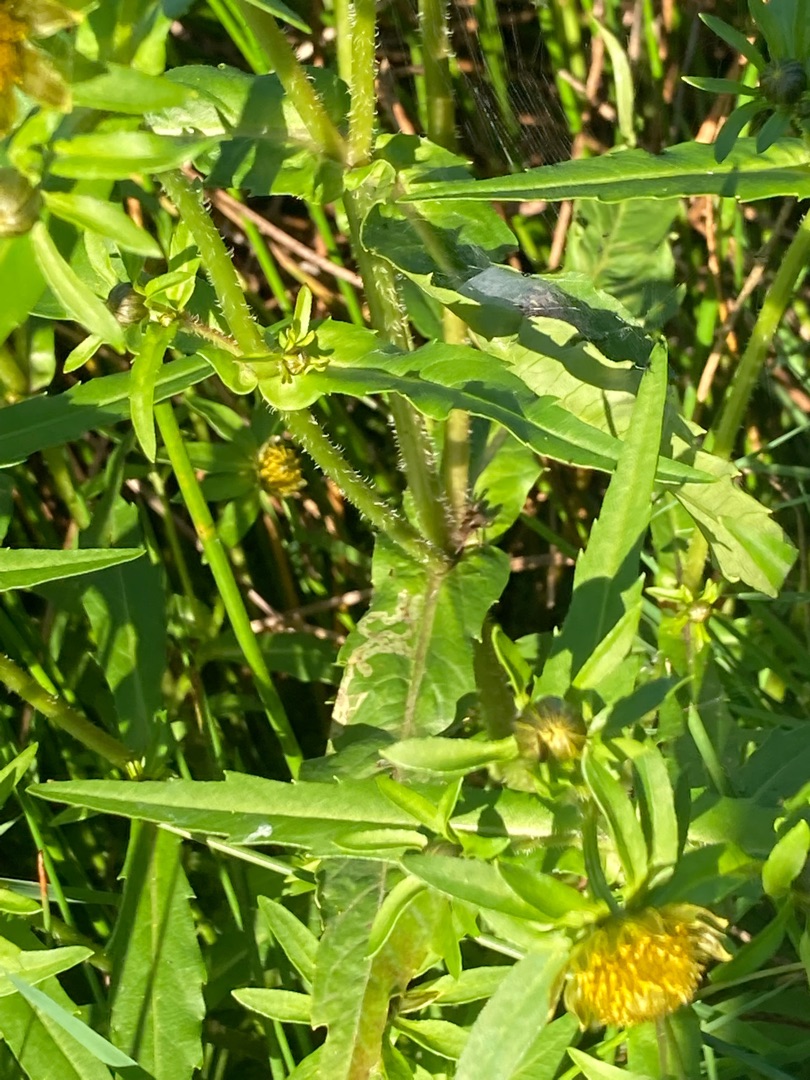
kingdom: Plantae
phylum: Tracheophyta
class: Magnoliopsida
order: Asterales
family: Asteraceae
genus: Bidens
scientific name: Bidens cernua
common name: Nikkende brøndsel
